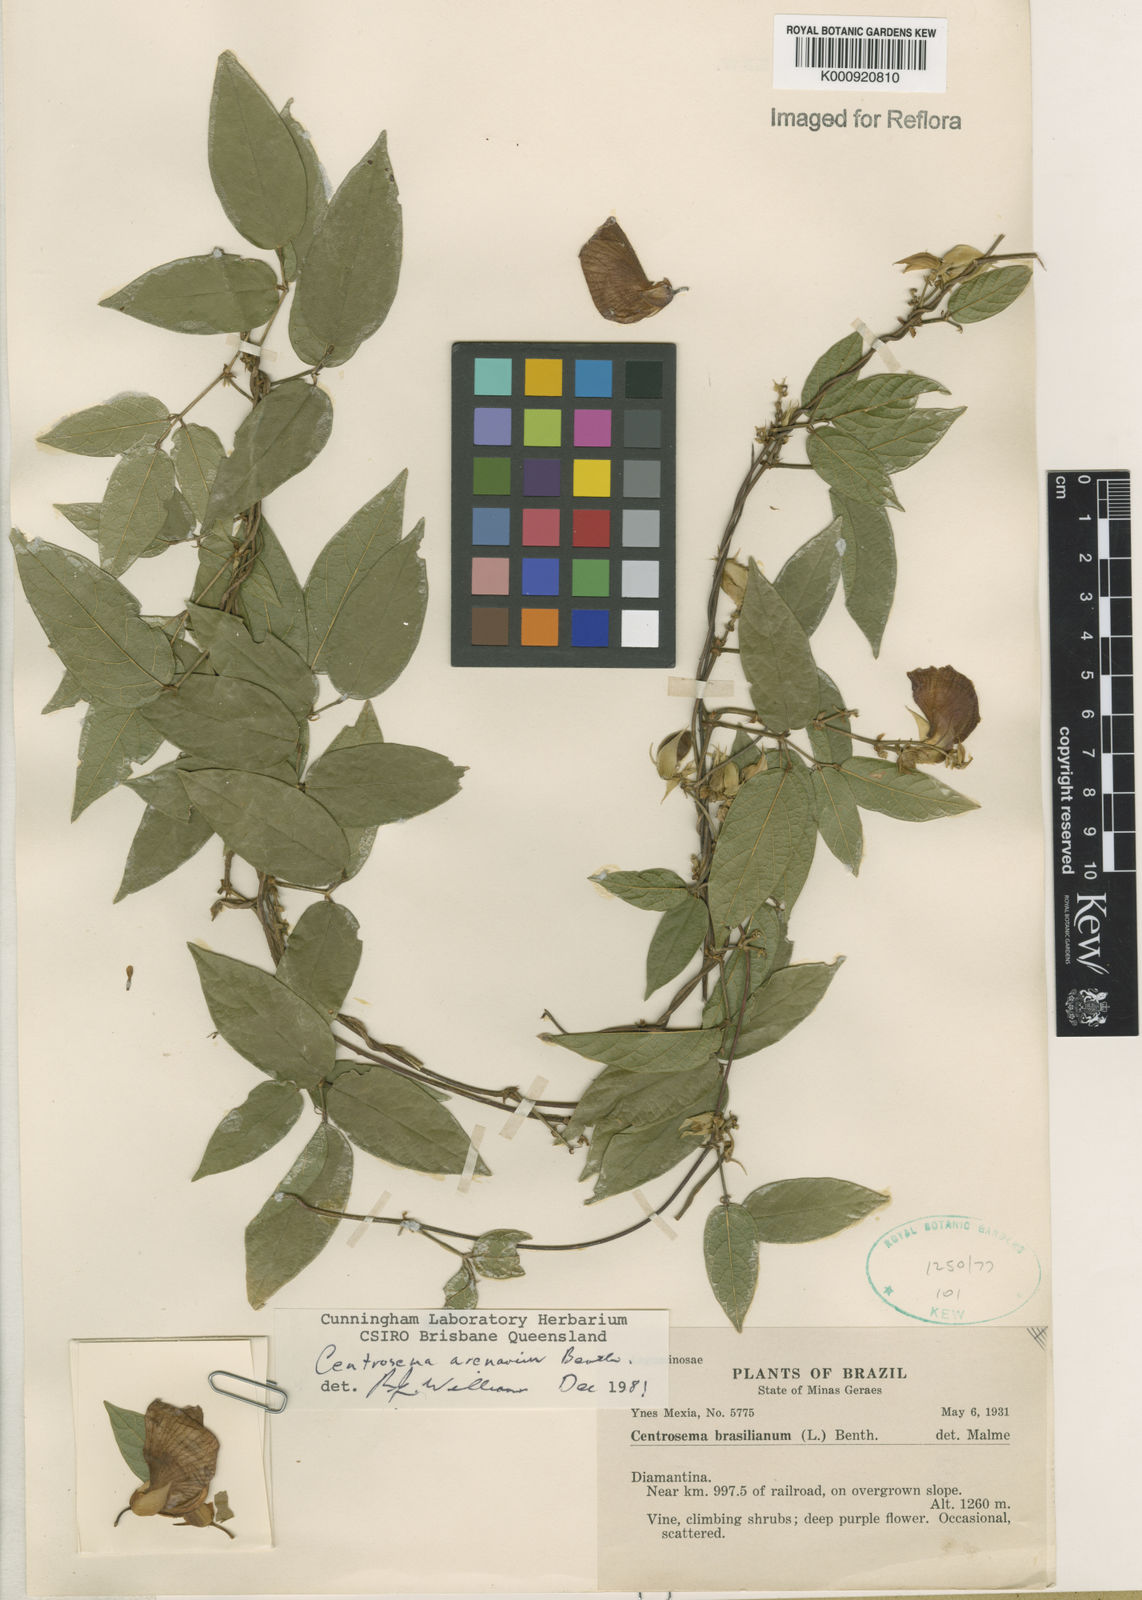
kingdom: Plantae
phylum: Tracheophyta
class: Magnoliopsida
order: Fabales
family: Fabaceae
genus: Centrosema
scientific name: Centrosema arenarium
